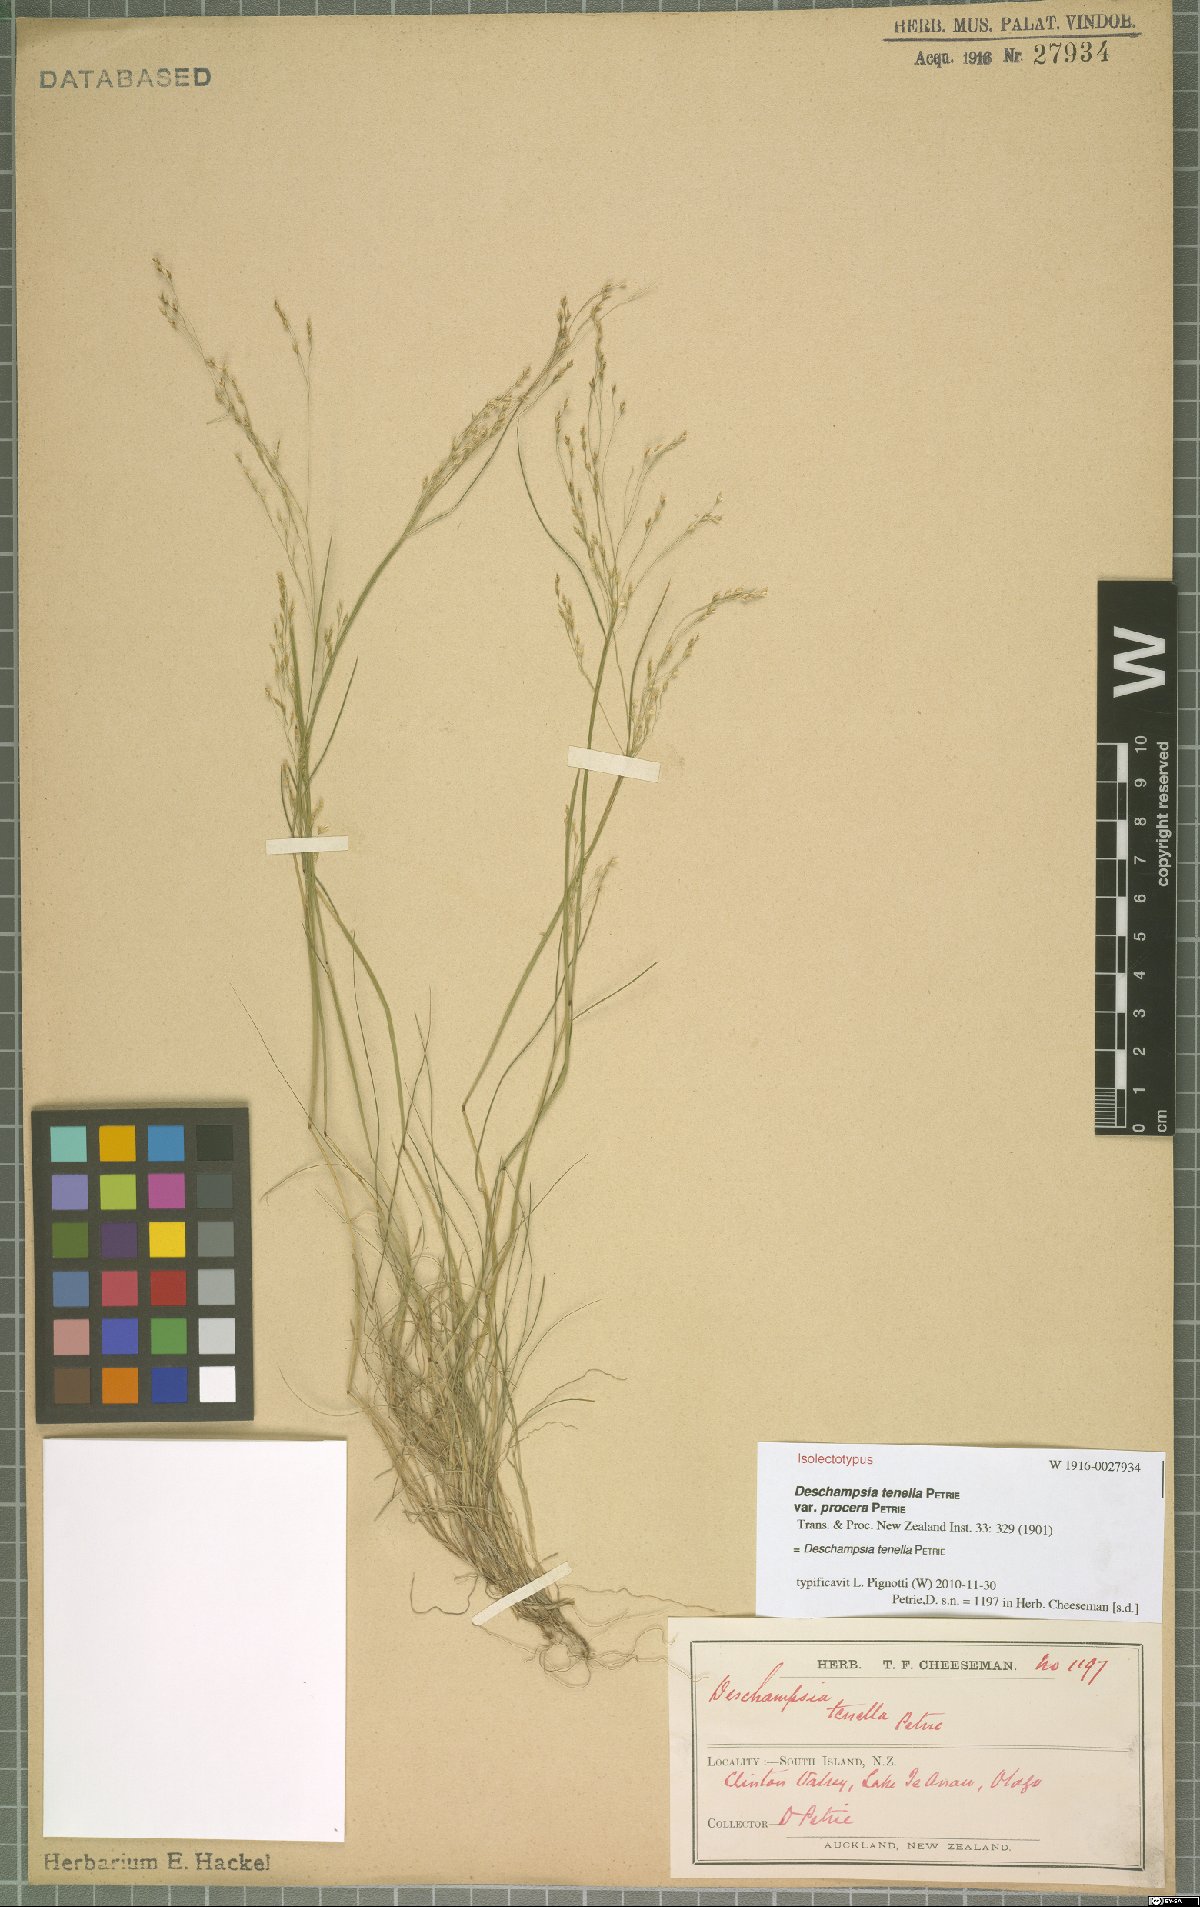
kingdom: Plantae
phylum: Tracheophyta
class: Liliopsida
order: Poales
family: Poaceae
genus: Deschampsia
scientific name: Deschampsia tenella
